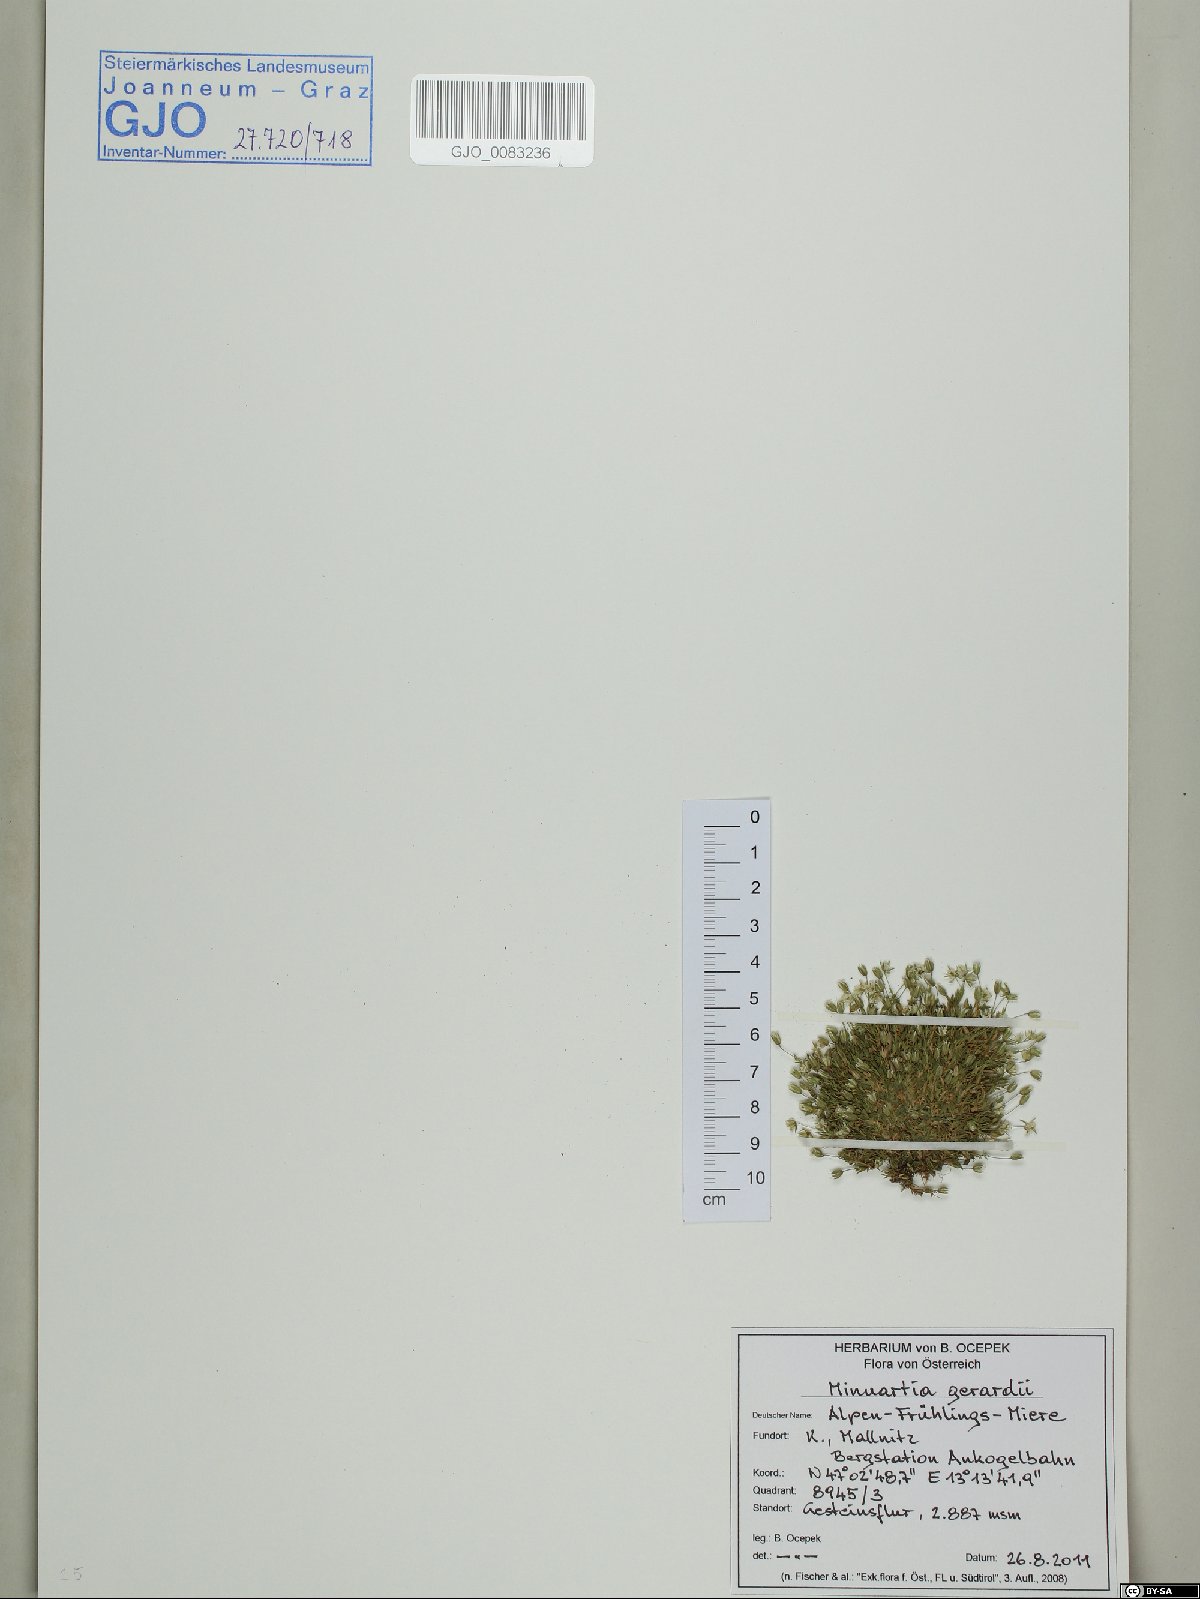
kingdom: Plantae
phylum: Tracheophyta
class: Magnoliopsida
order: Caryophyllales
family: Caryophyllaceae
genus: Sabulina
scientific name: Sabulina verna
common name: Spring sandwort
